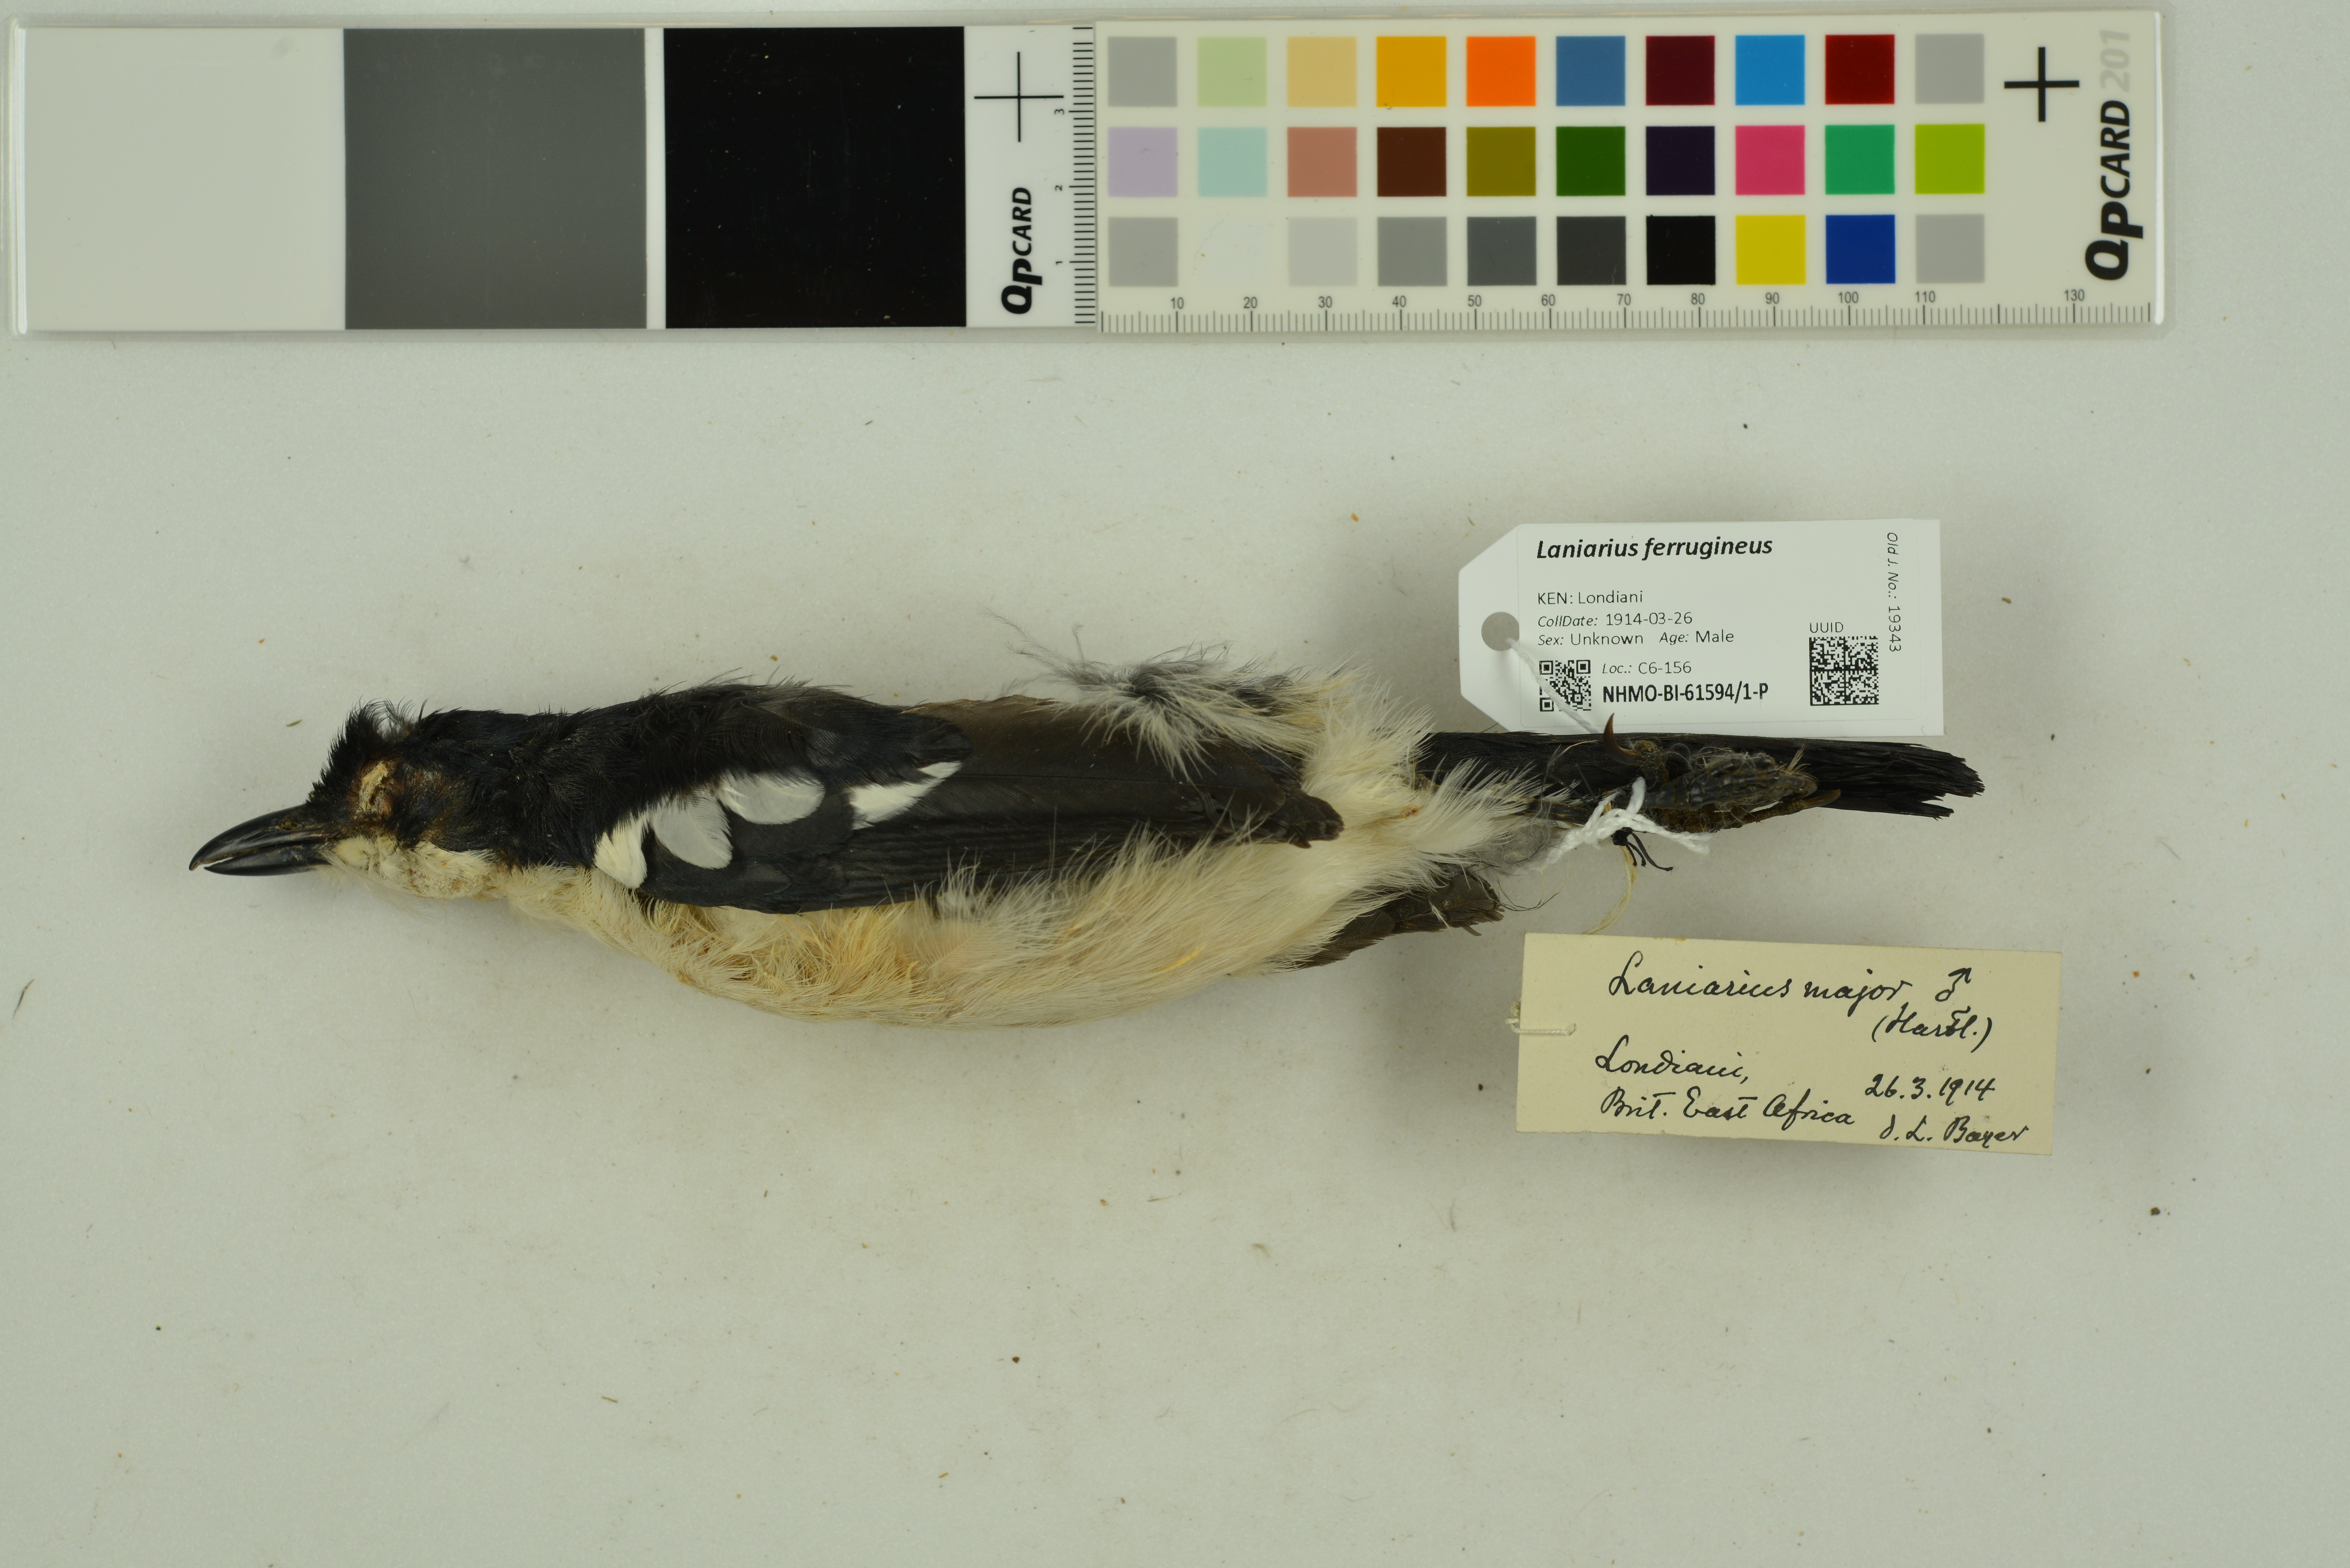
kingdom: Animalia
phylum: Chordata
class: Aves
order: Passeriformes
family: Malaconotidae
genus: Laniarius
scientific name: Laniarius ferrugineus
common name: Southern boubou
